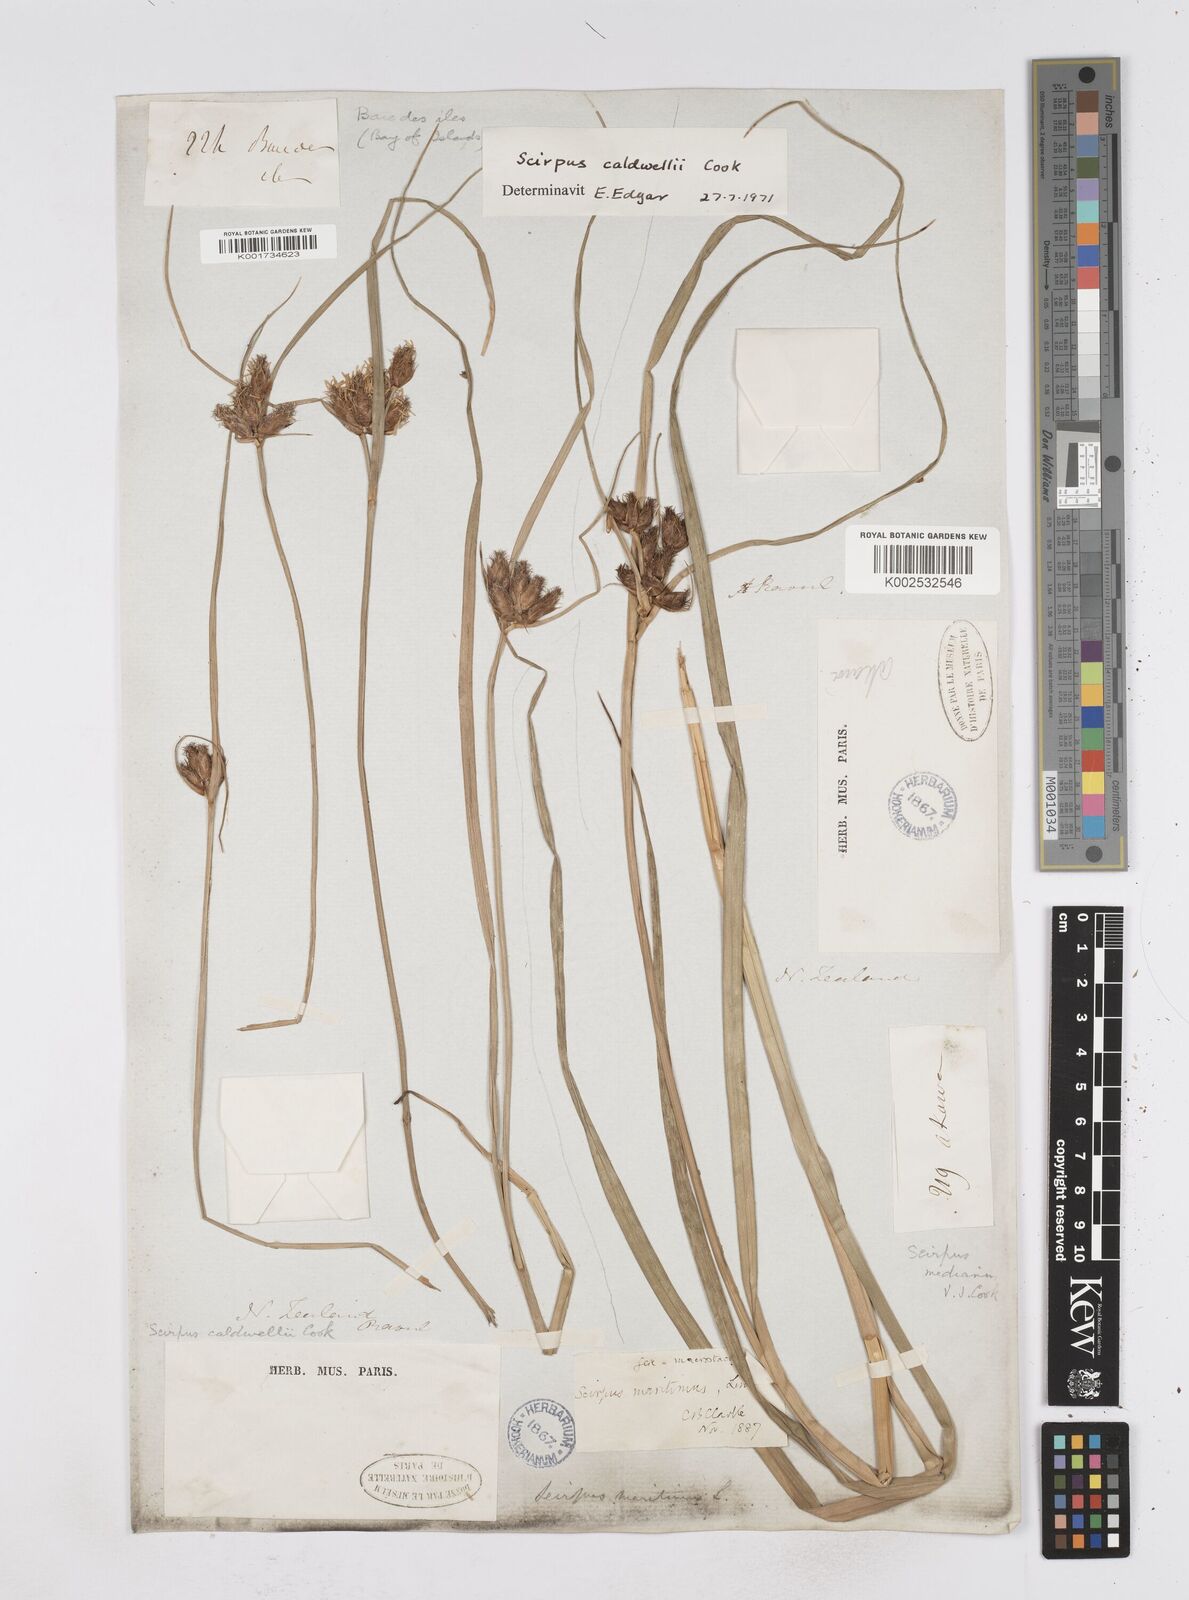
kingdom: Plantae
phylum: Tracheophyta
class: Liliopsida
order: Poales
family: Cyperaceae
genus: Bolboschoenus
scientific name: Bolboschoenus caldwellii
